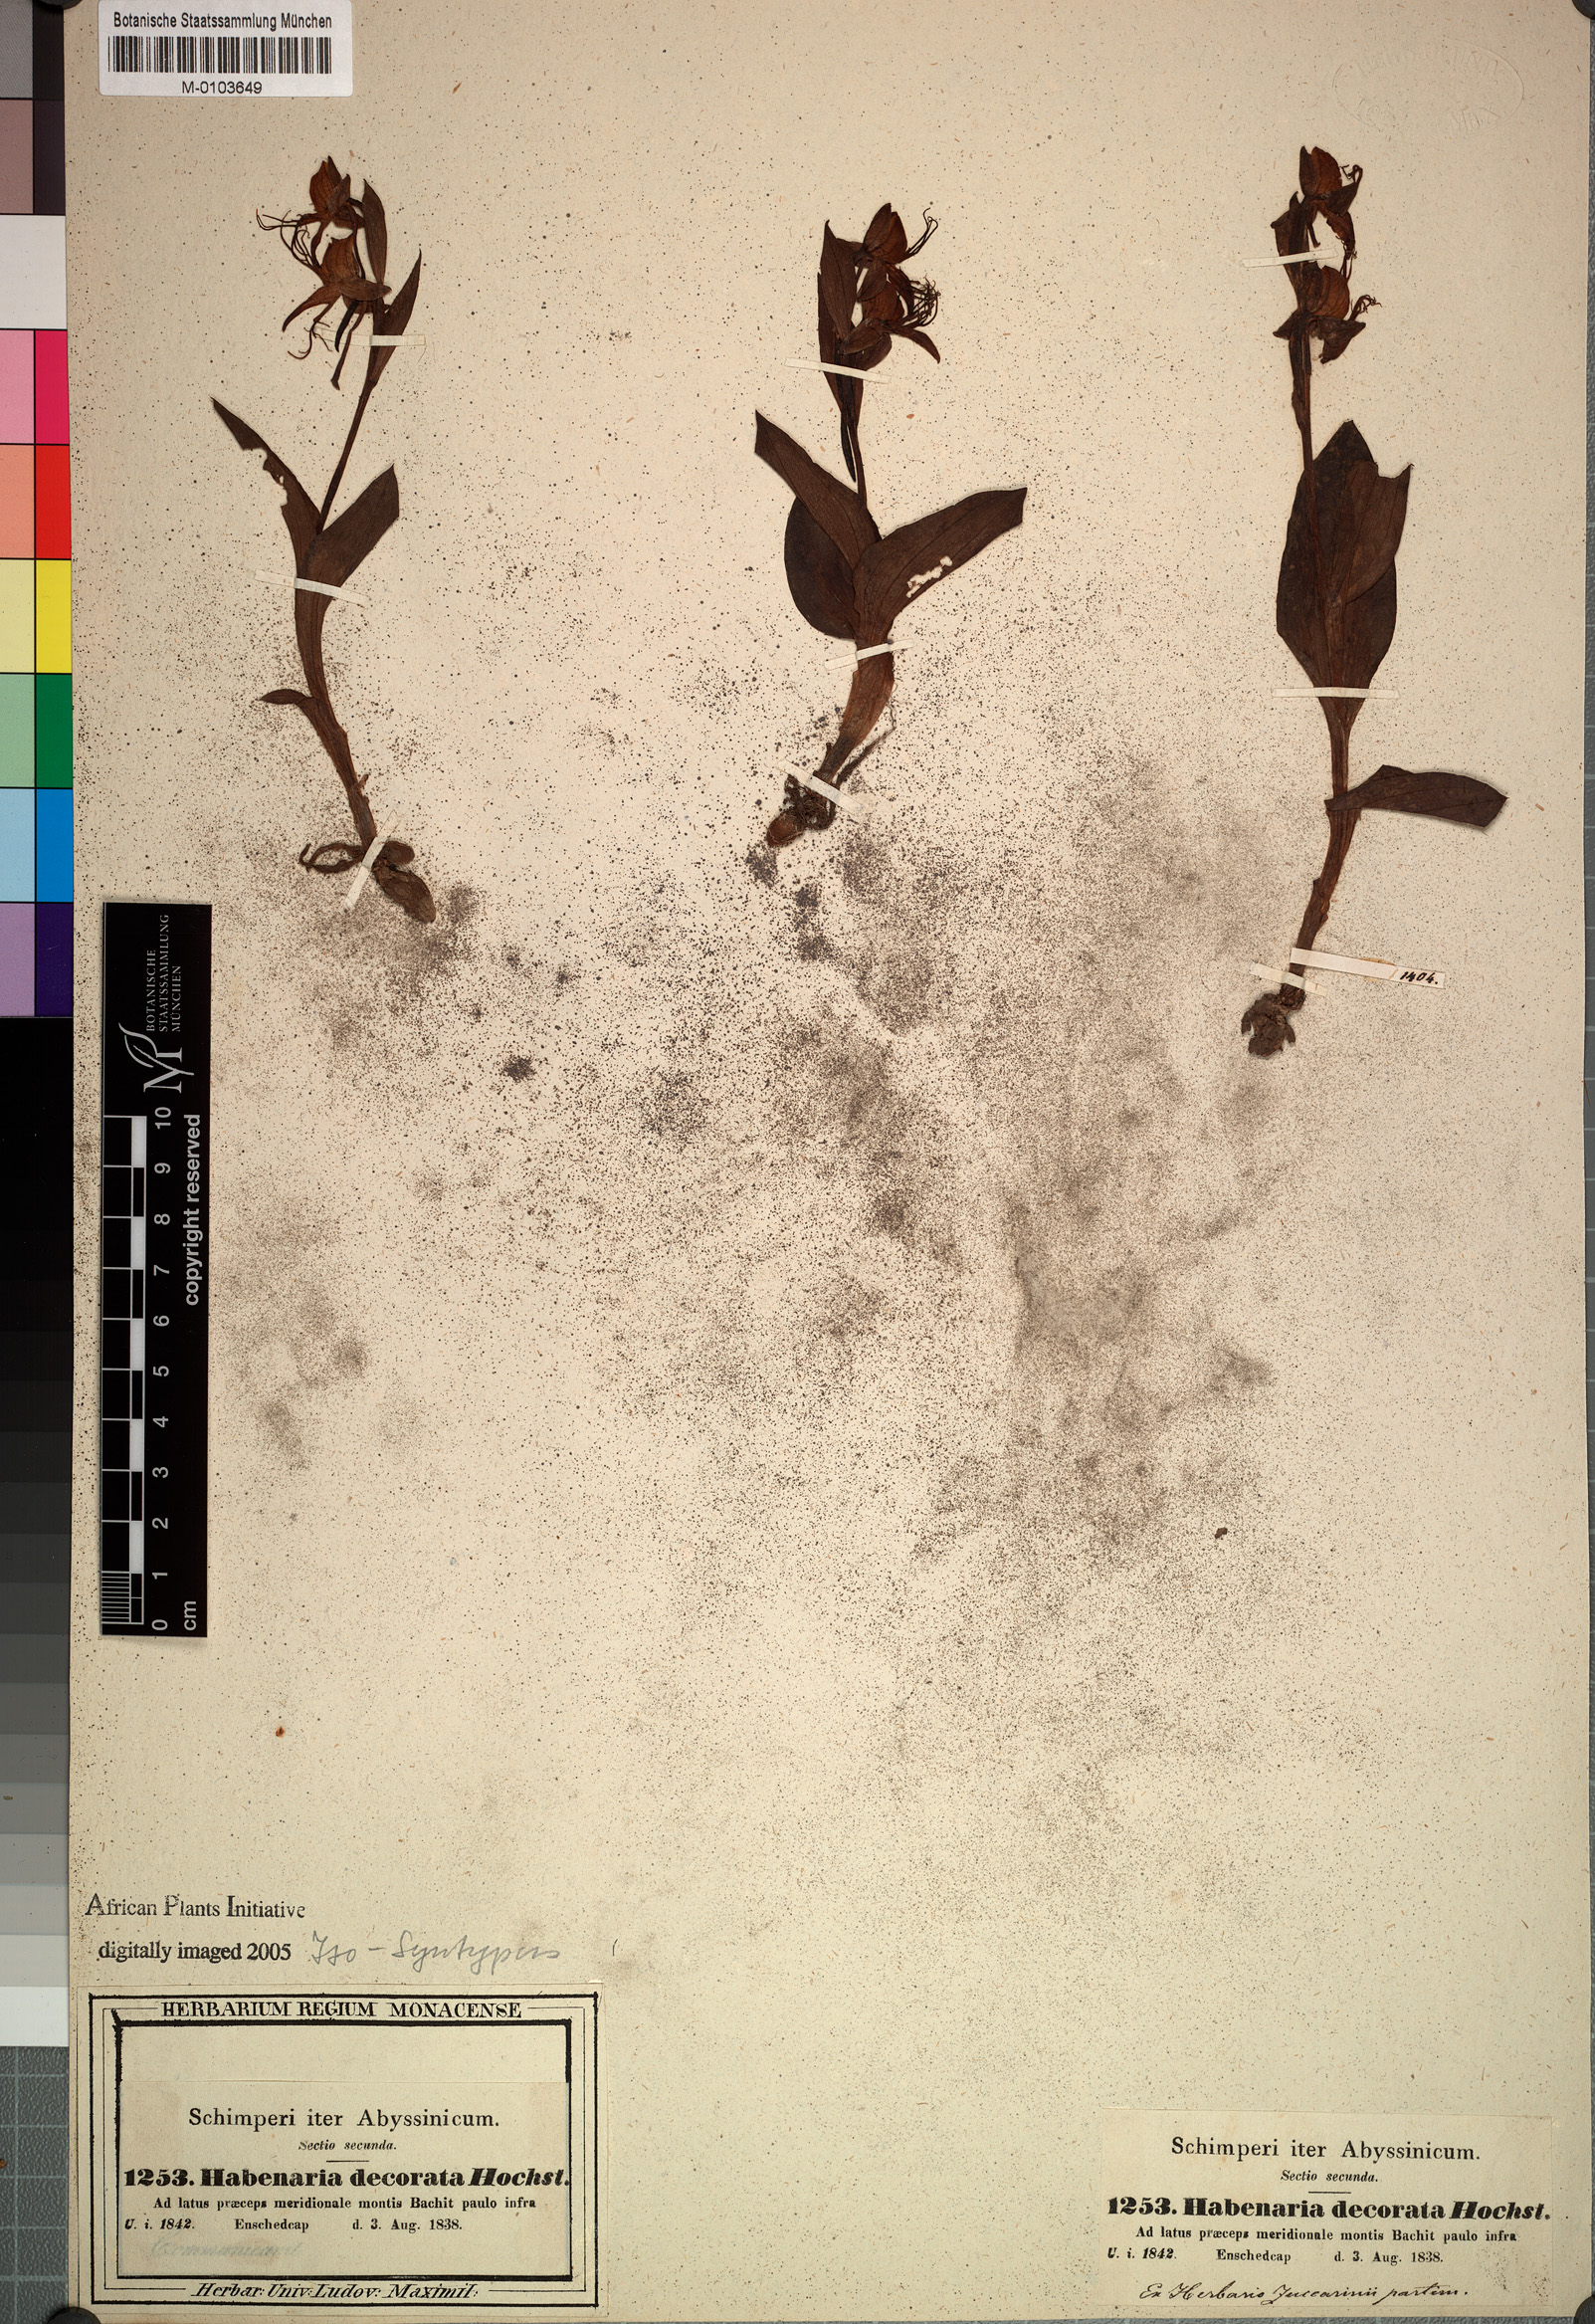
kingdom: Plantae
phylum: Tracheophyta
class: Liliopsida
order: Asparagales
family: Orchidaceae
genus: Habenaria
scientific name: Habenaria decorata
